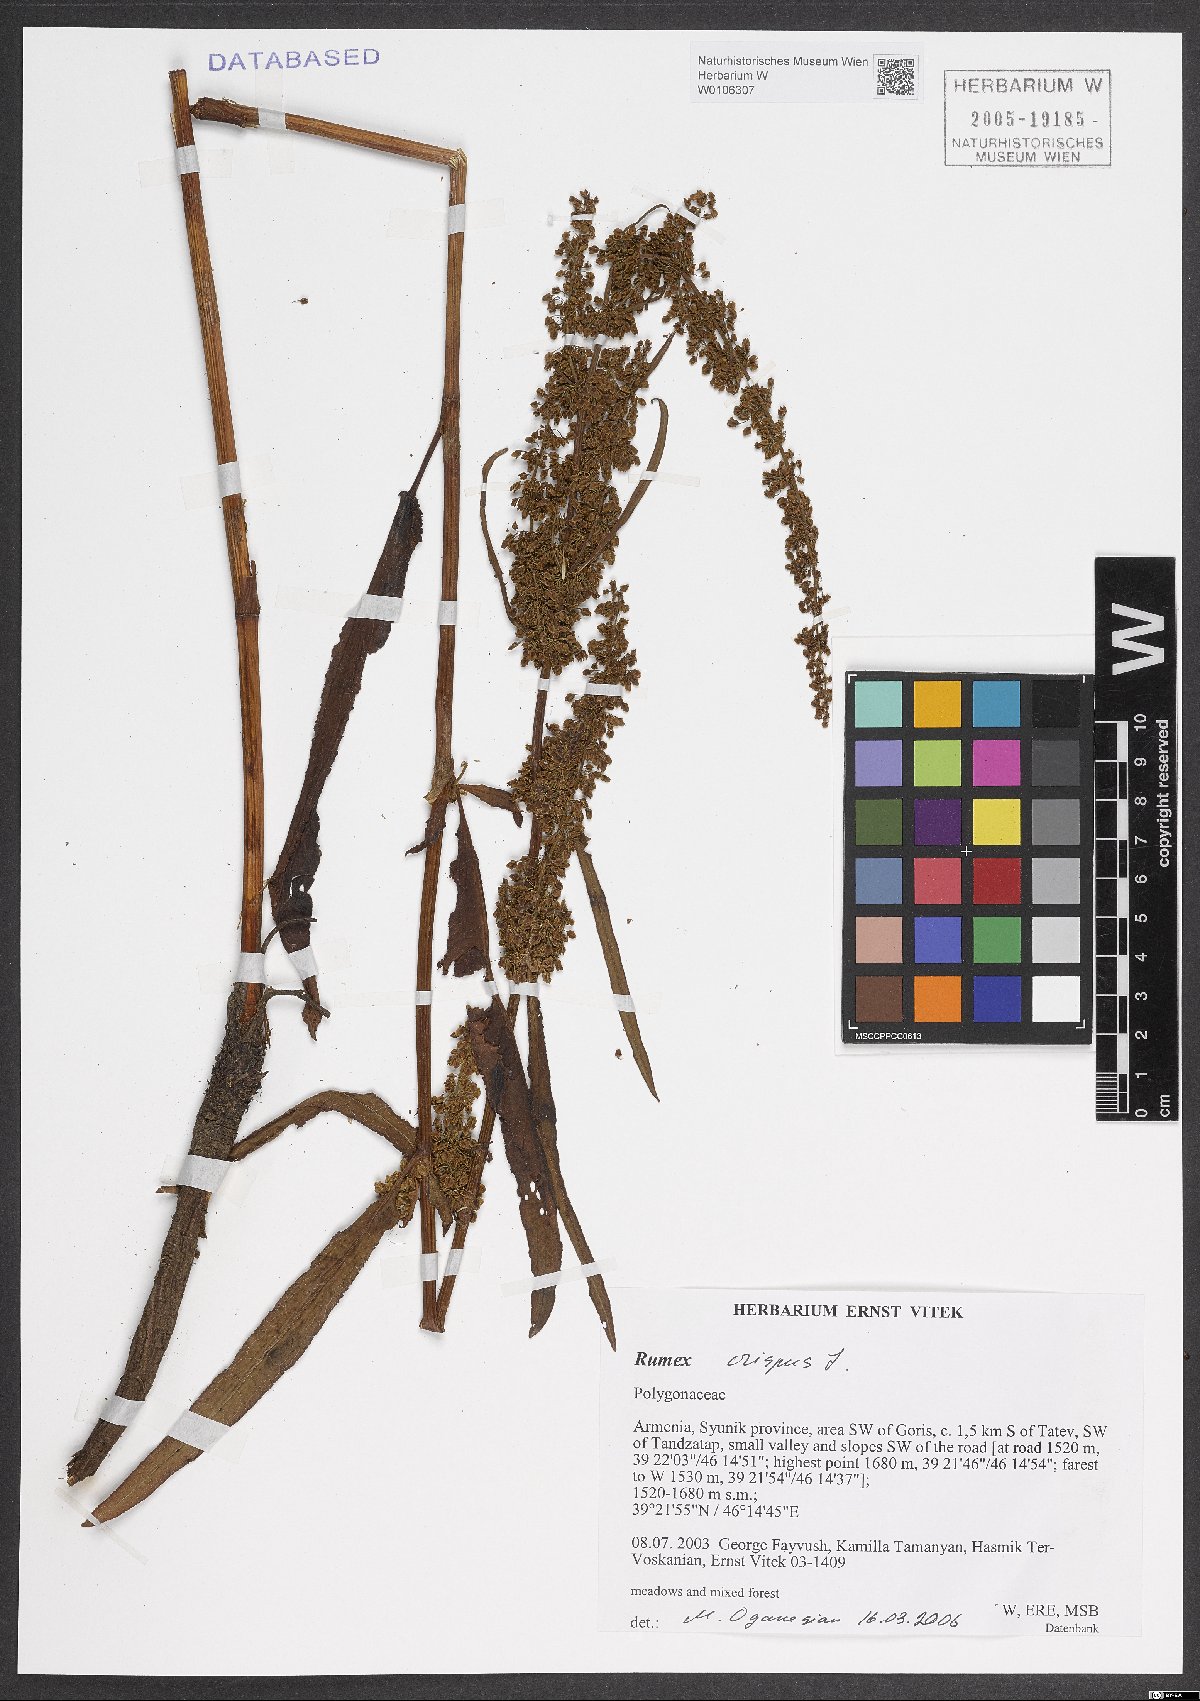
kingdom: Plantae
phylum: Tracheophyta
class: Magnoliopsida
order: Caryophyllales
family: Polygonaceae
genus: Rumex
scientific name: Rumex crispus
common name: Curled dock
